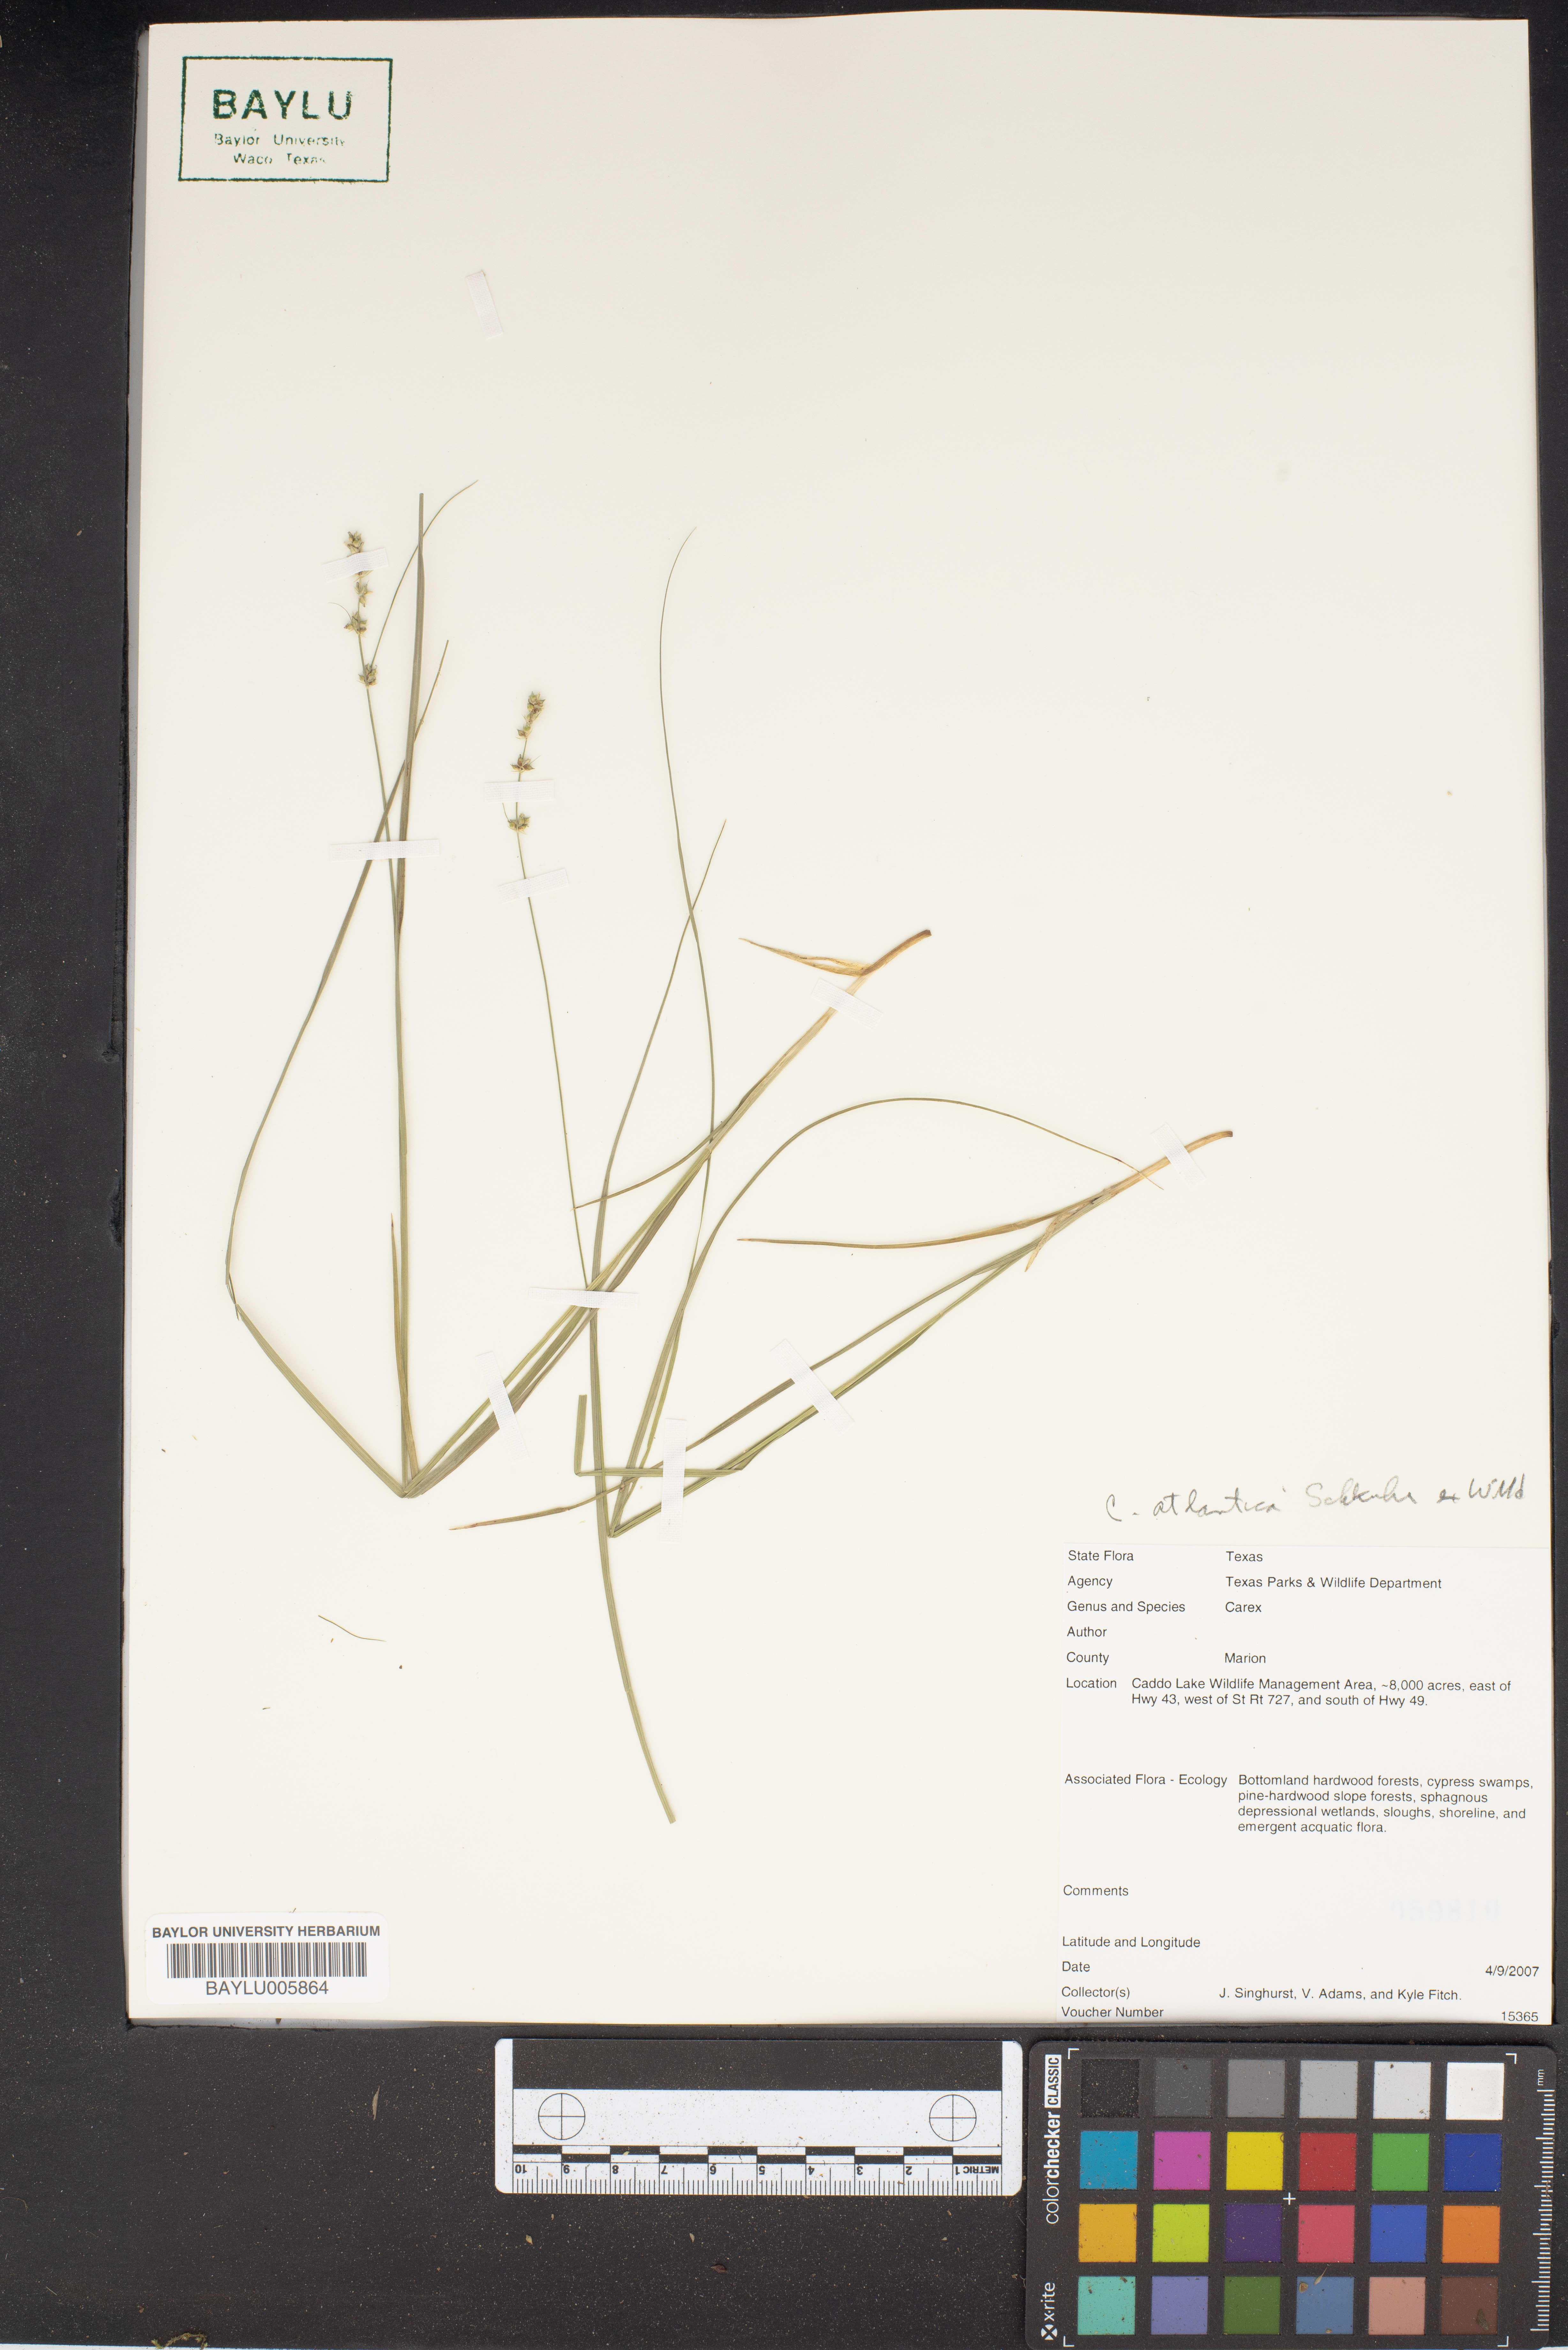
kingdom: Plantae
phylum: Tracheophyta
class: Liliopsida
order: Poales
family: Cyperaceae
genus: Carex
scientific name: Carex atlantica
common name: Atlantic sedge
